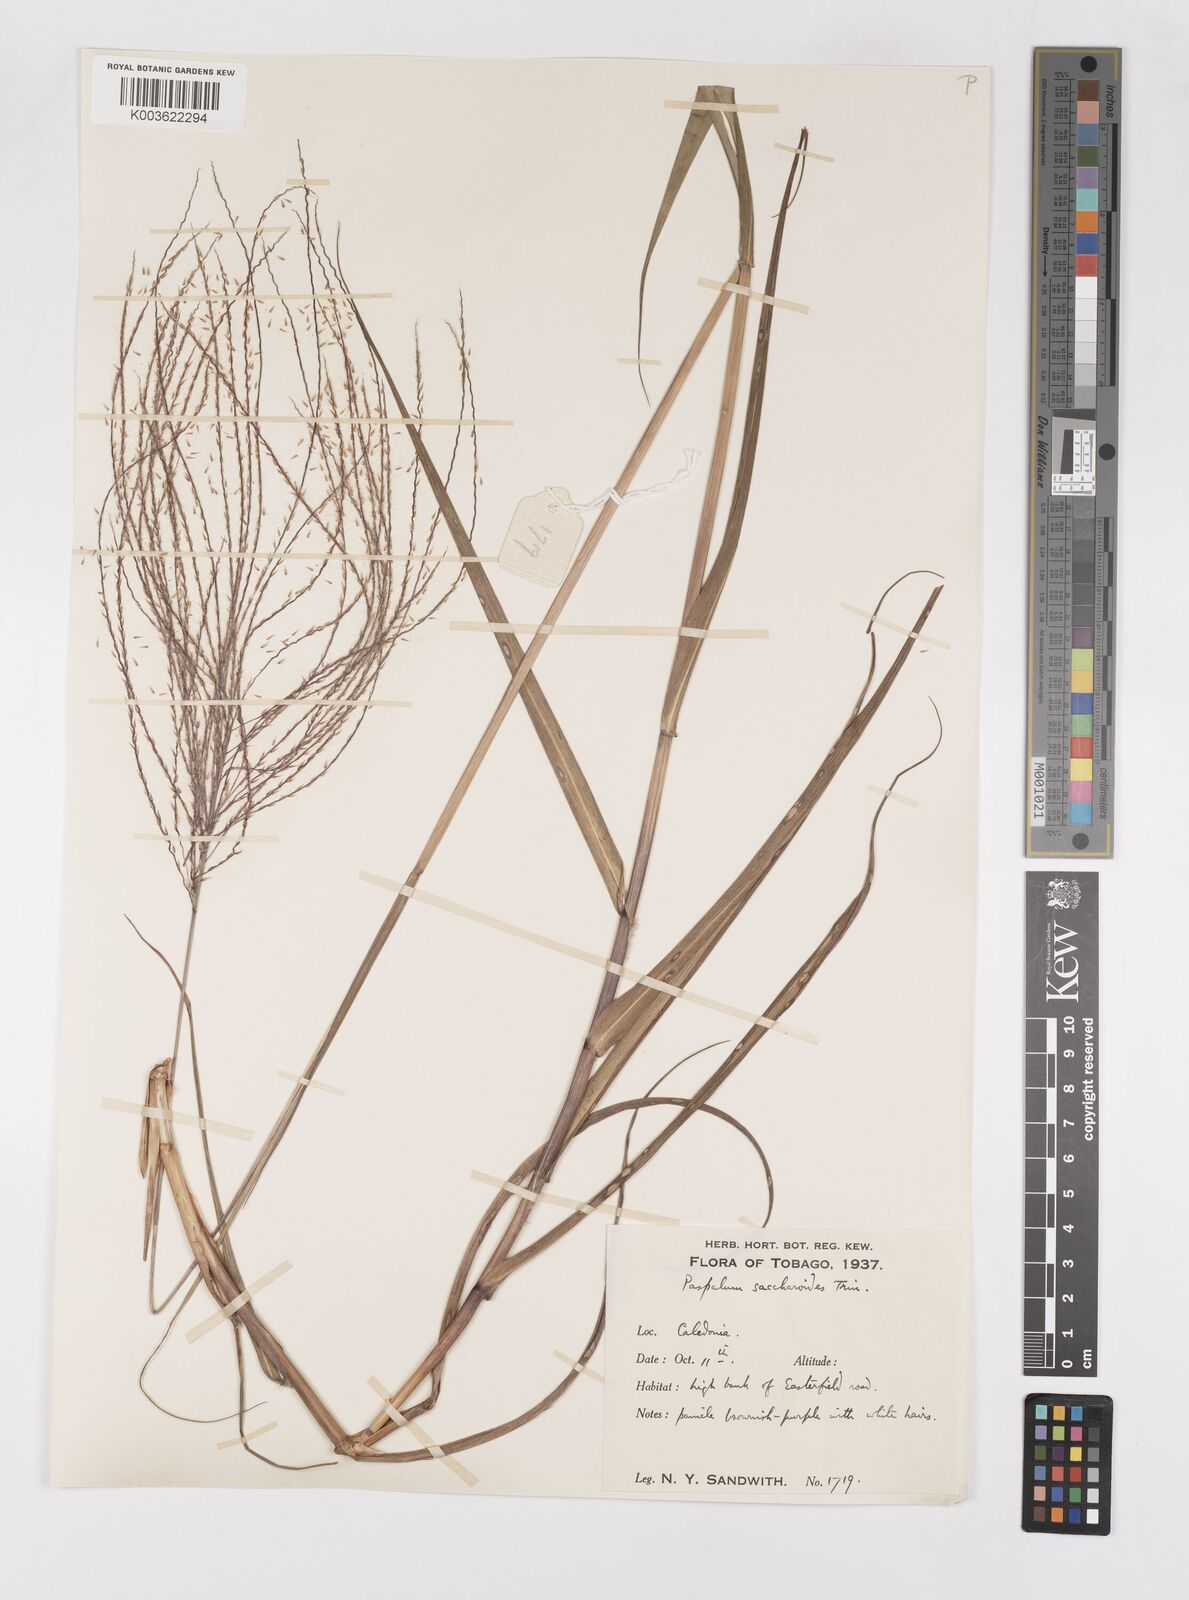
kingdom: Plantae
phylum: Tracheophyta
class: Liliopsida
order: Poales
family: Poaceae
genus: Paspalum
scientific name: Paspalum saccharoides
